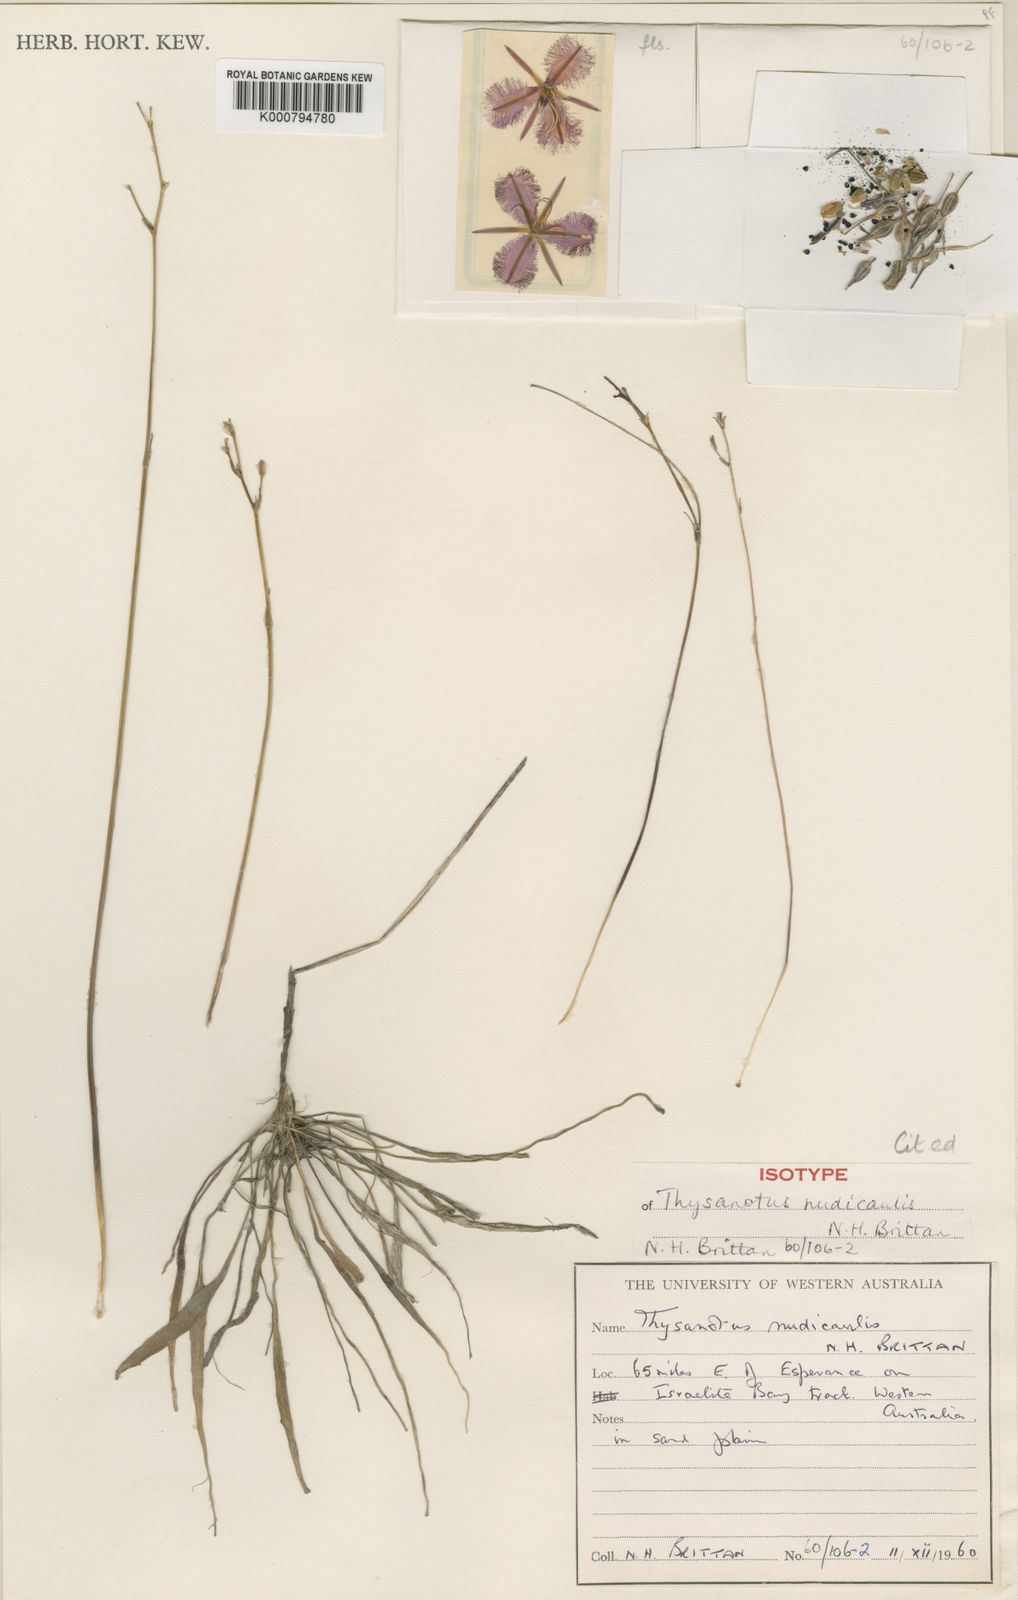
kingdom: Plantae
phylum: Tracheophyta
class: Liliopsida
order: Asparagales
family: Asparagaceae
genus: Thysanotus
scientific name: Thysanotus nudicaulis
